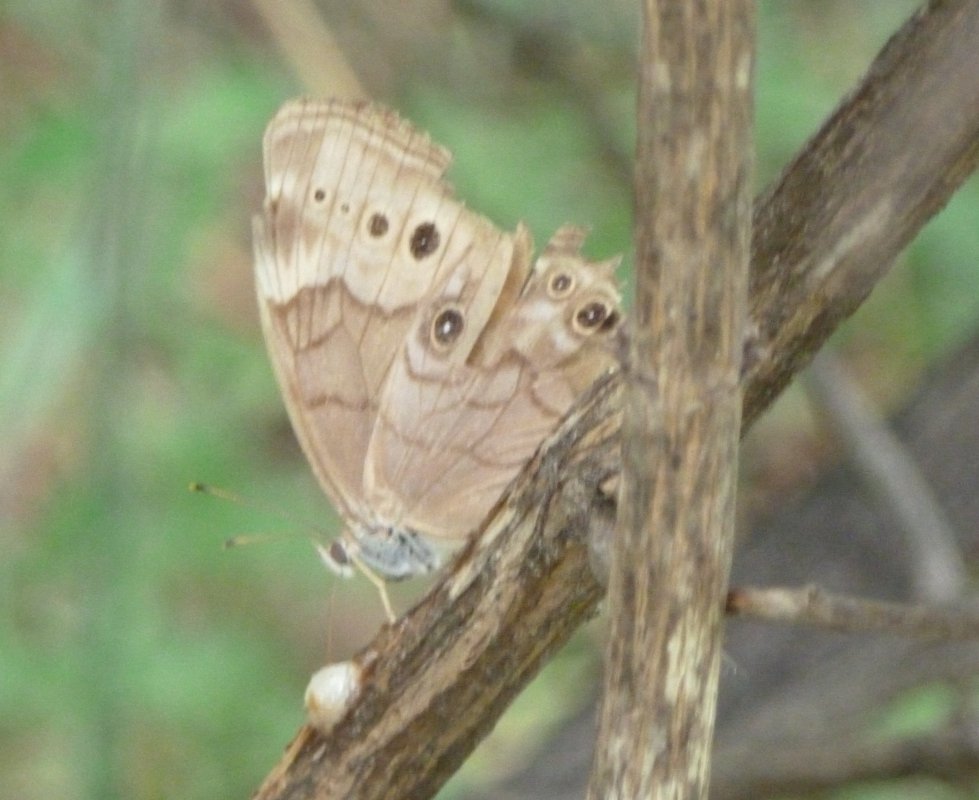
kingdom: Animalia
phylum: Arthropoda
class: Insecta
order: Lepidoptera
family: Nymphalidae
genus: Lethe
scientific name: Lethe anthedon
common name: Northern Pearly-Eye
